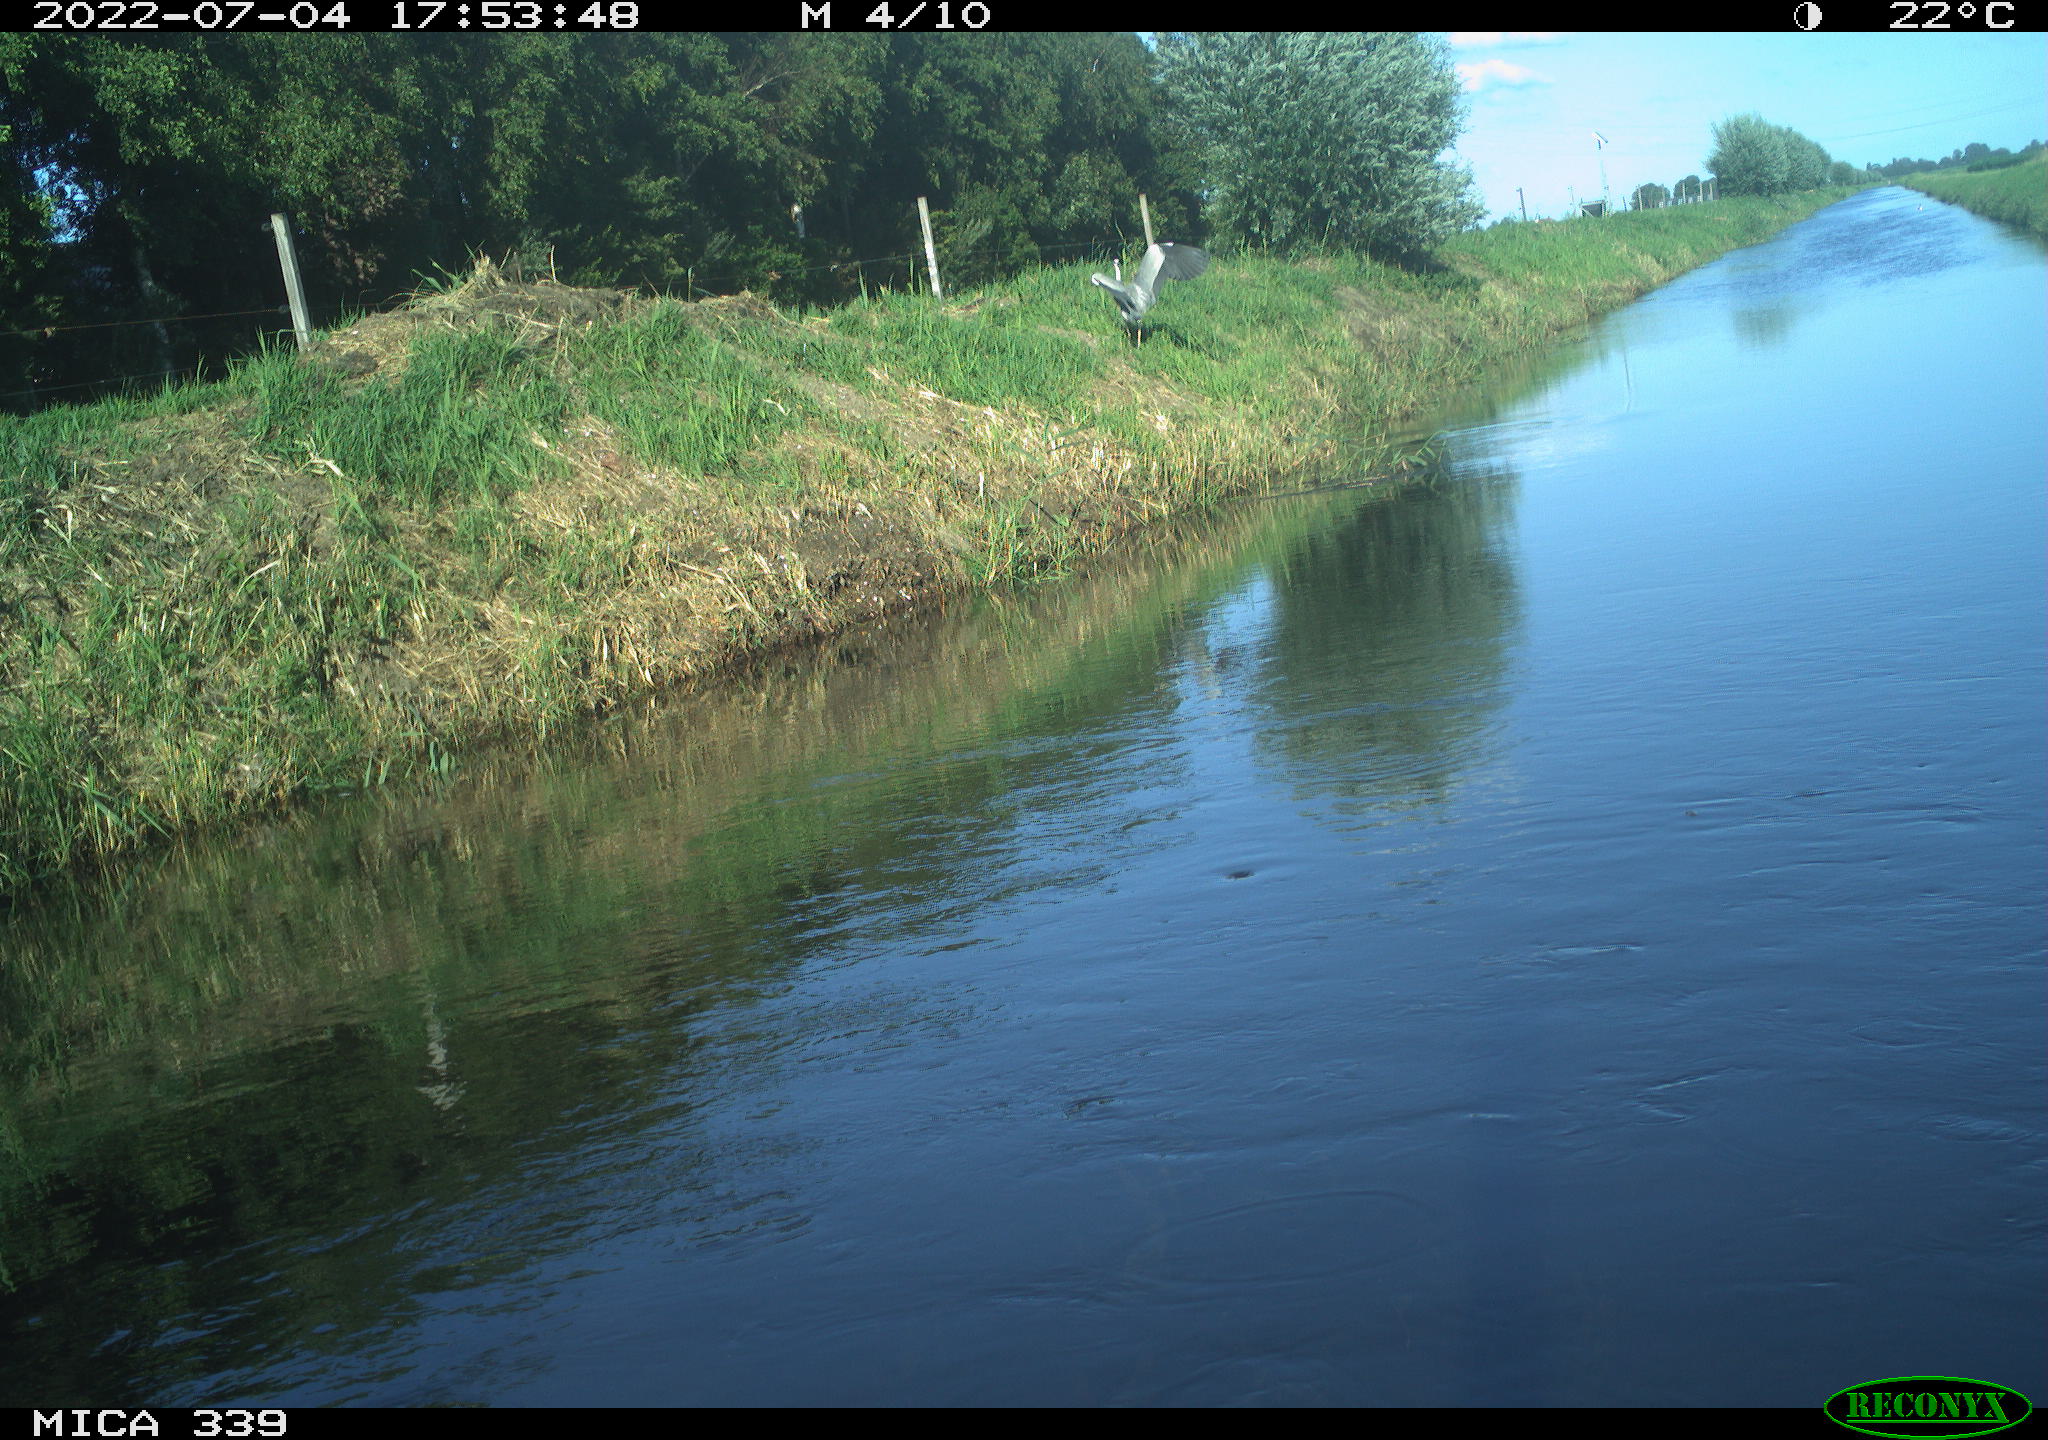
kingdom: Animalia
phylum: Chordata
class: Aves
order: Pelecaniformes
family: Ardeidae
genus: Ardea
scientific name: Ardea cinerea
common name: Grey heron
